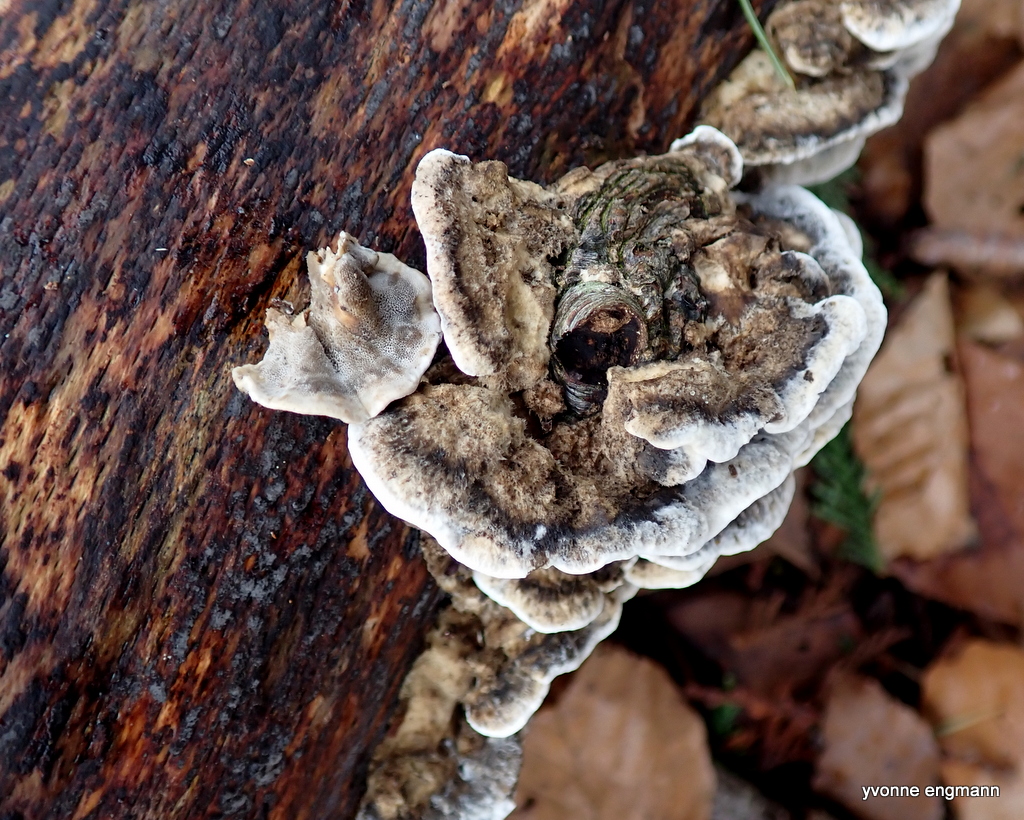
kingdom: Fungi
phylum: Basidiomycota
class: Agaricomycetes
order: Polyporales
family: Phanerochaetaceae
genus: Bjerkandera
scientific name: Bjerkandera adusta
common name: sveden sodporesvamp
